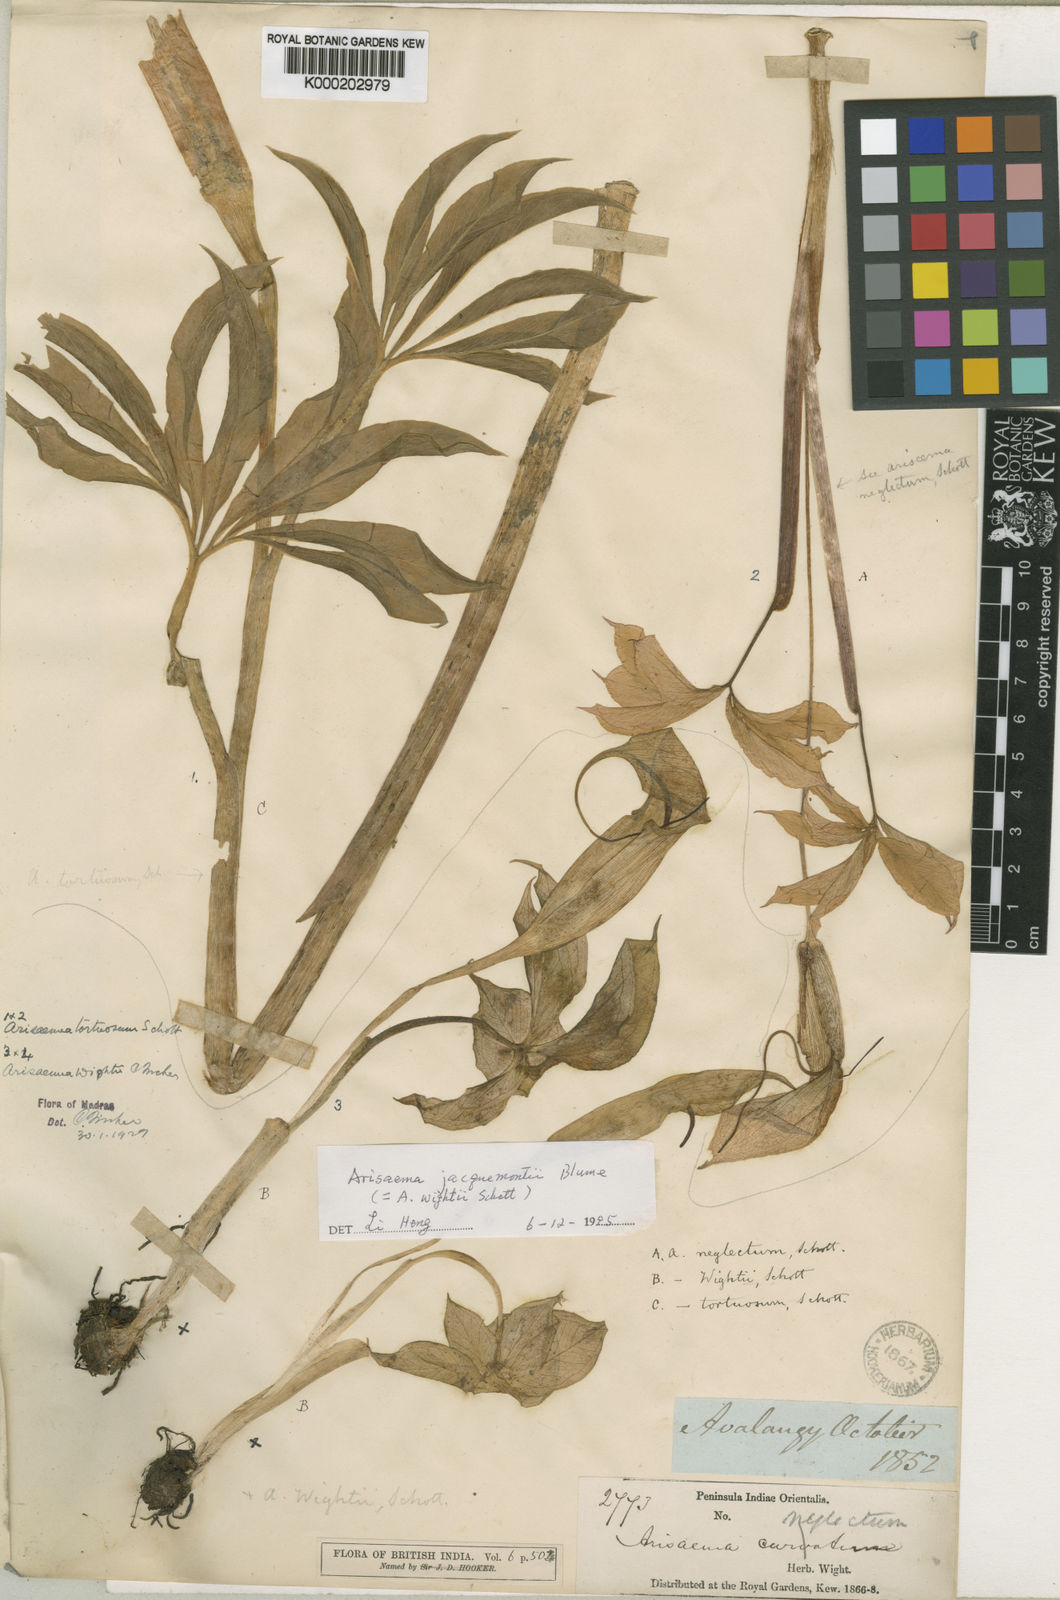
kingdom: Plantae
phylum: Tracheophyta
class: Liliopsida
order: Alismatales
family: Araceae
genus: Arisaema
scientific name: Arisaema jacquemontii
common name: Jacquemont's cobra-lily
